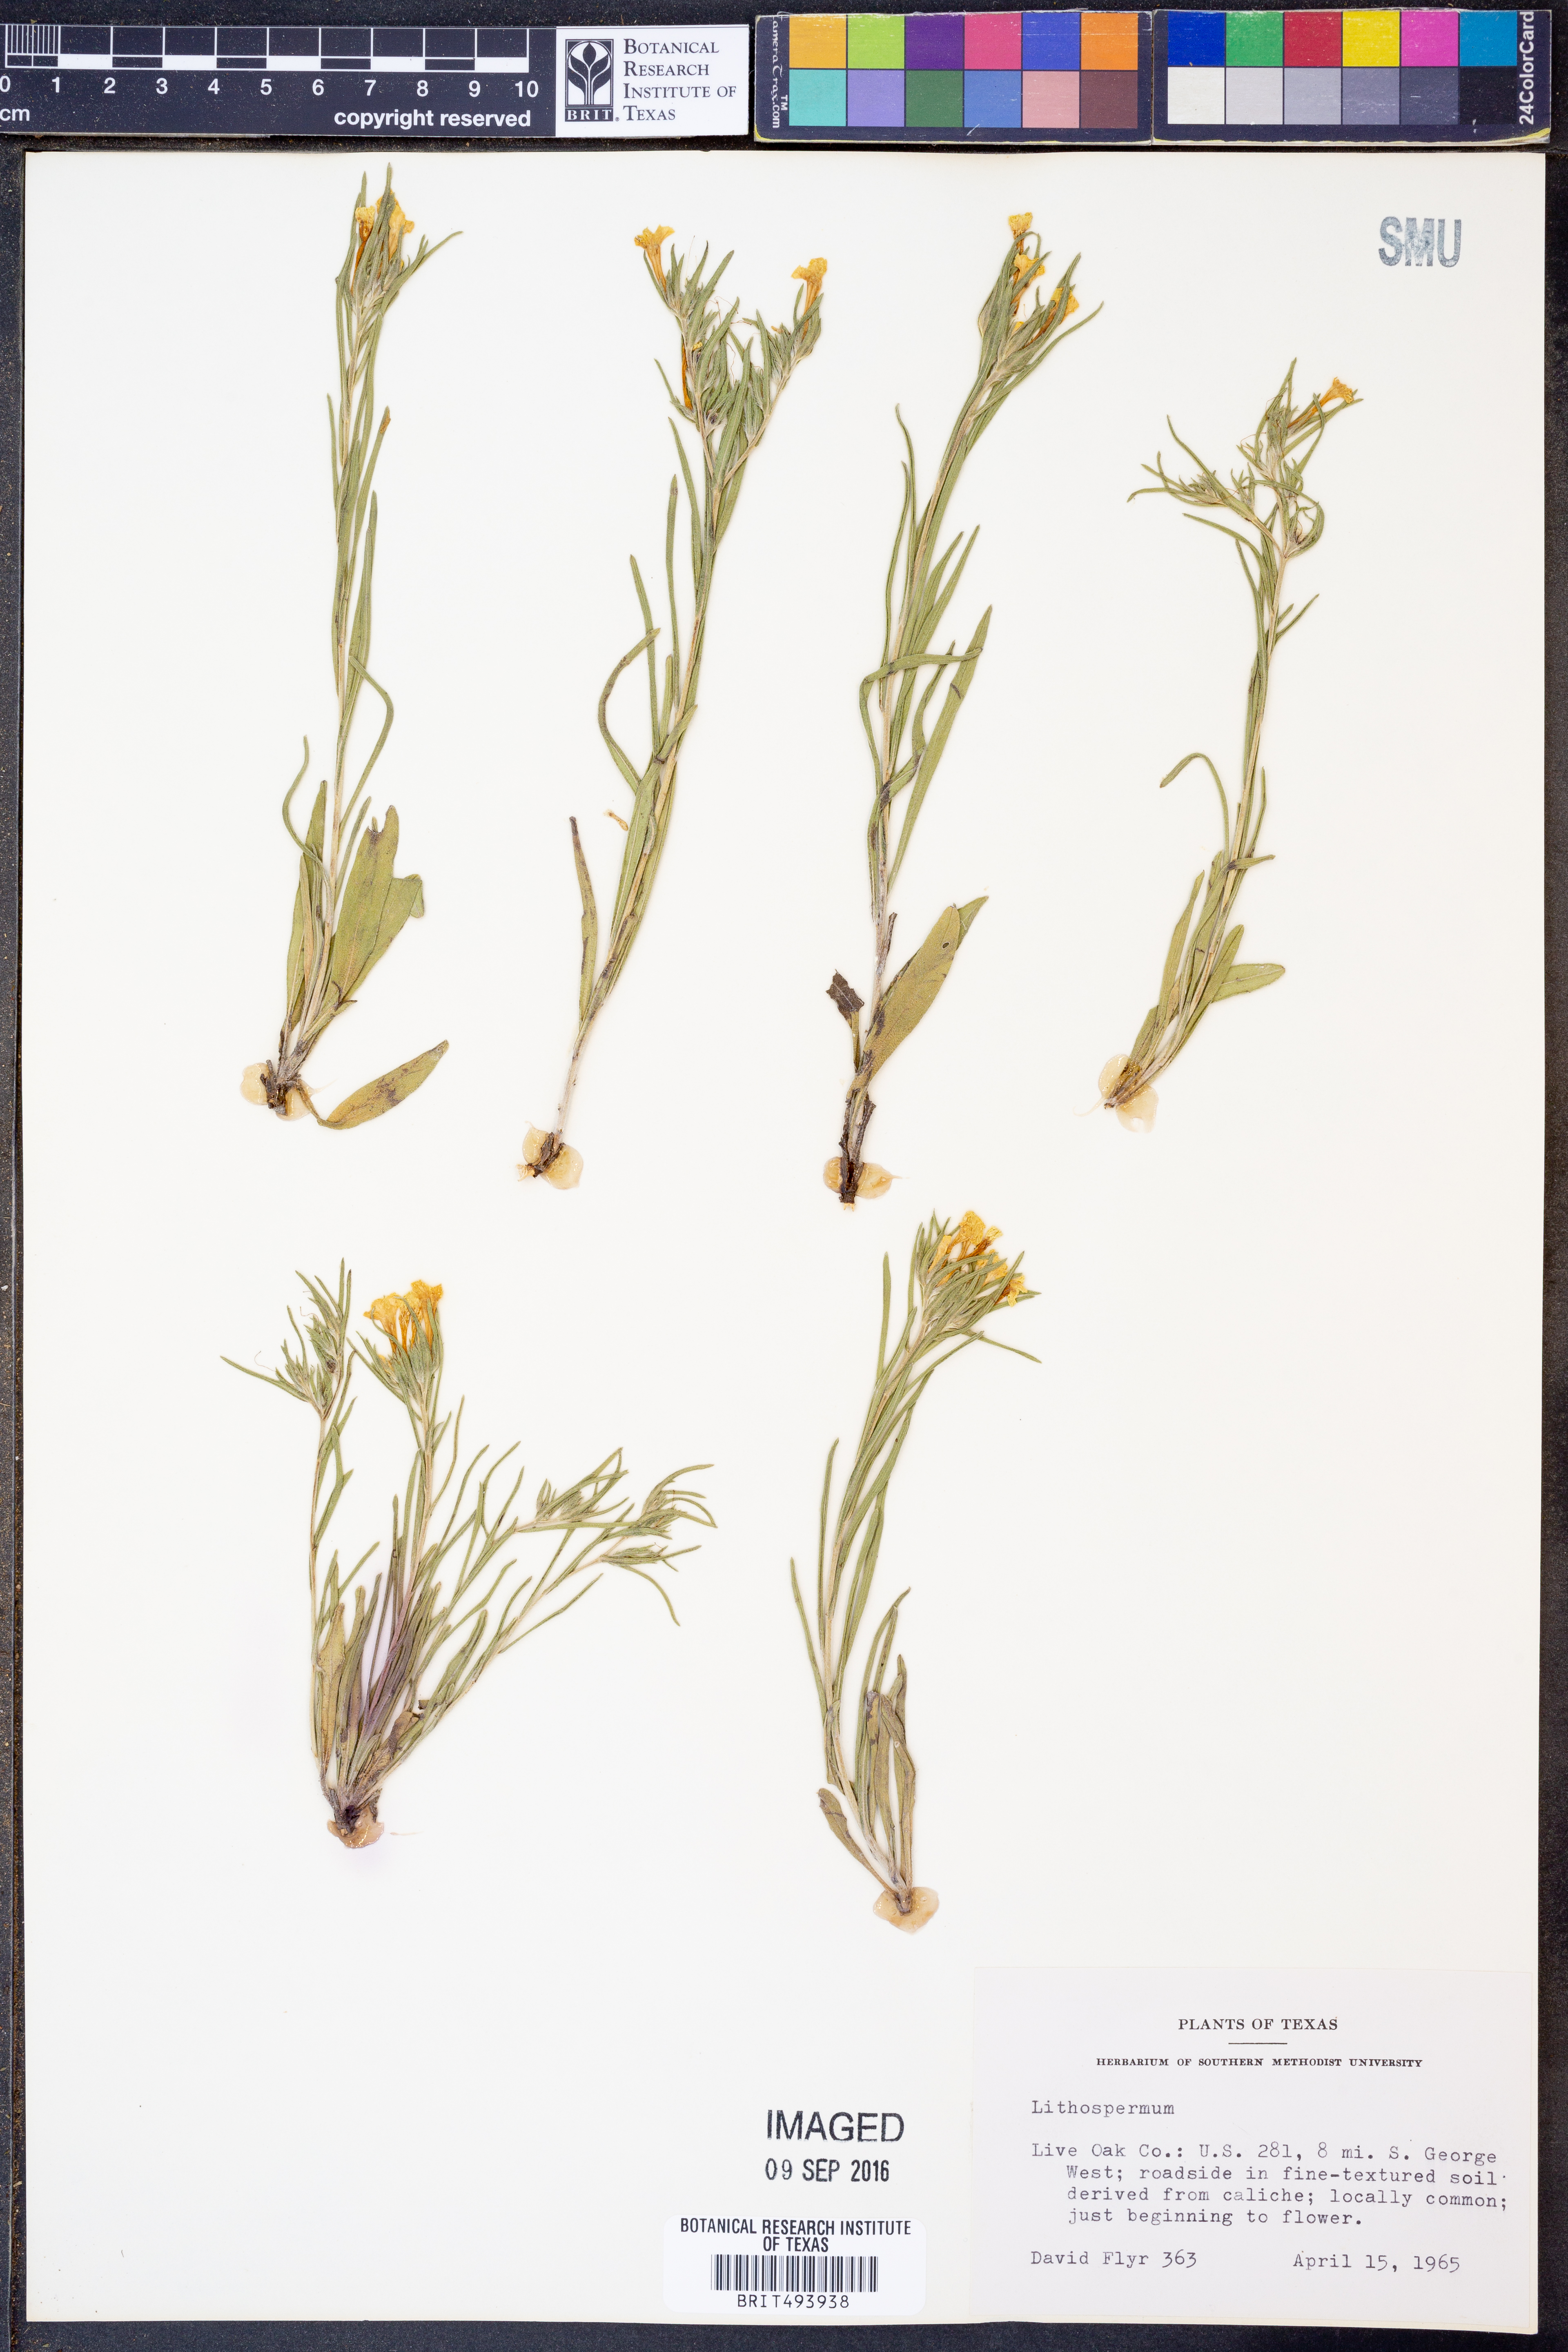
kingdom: Plantae
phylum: Tracheophyta
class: Magnoliopsida
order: Boraginales
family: Boraginaceae
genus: Lithospermum
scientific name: Lithospermum
